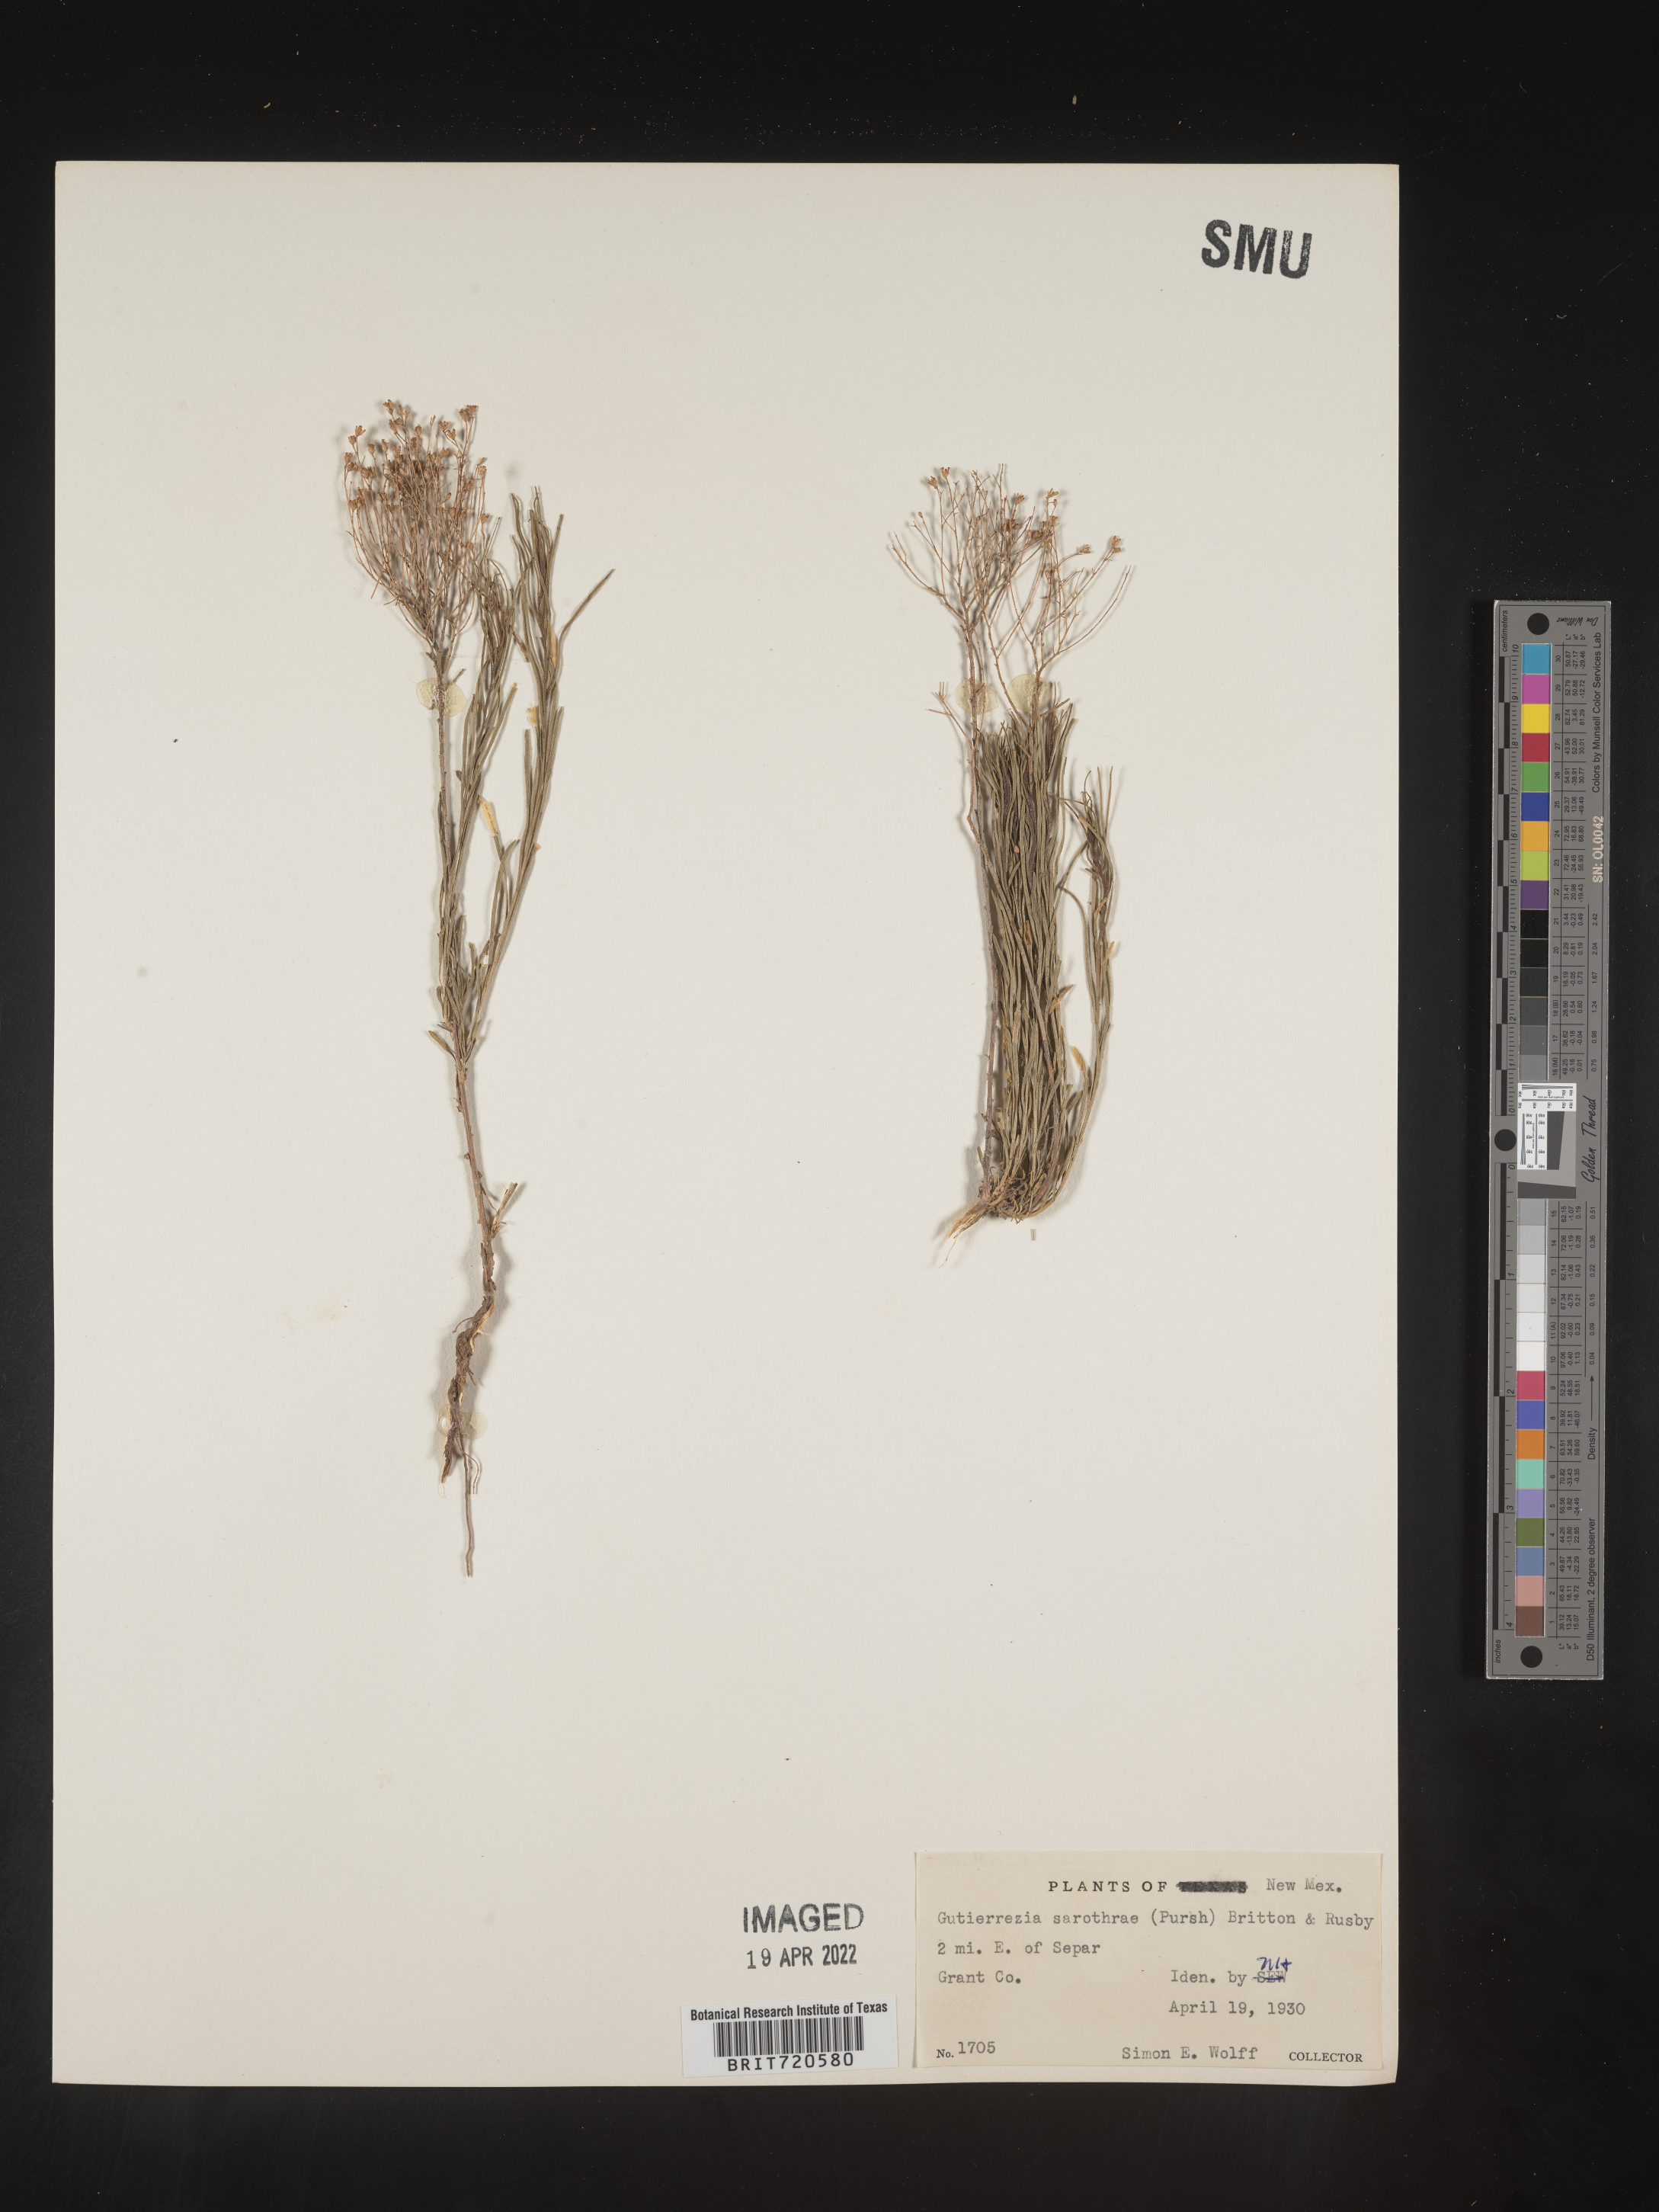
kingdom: Plantae
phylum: Tracheophyta
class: Magnoliopsida
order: Asterales
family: Asteraceae
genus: Gutierrezia
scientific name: Gutierrezia sarothrae
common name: Broom snakeweed
